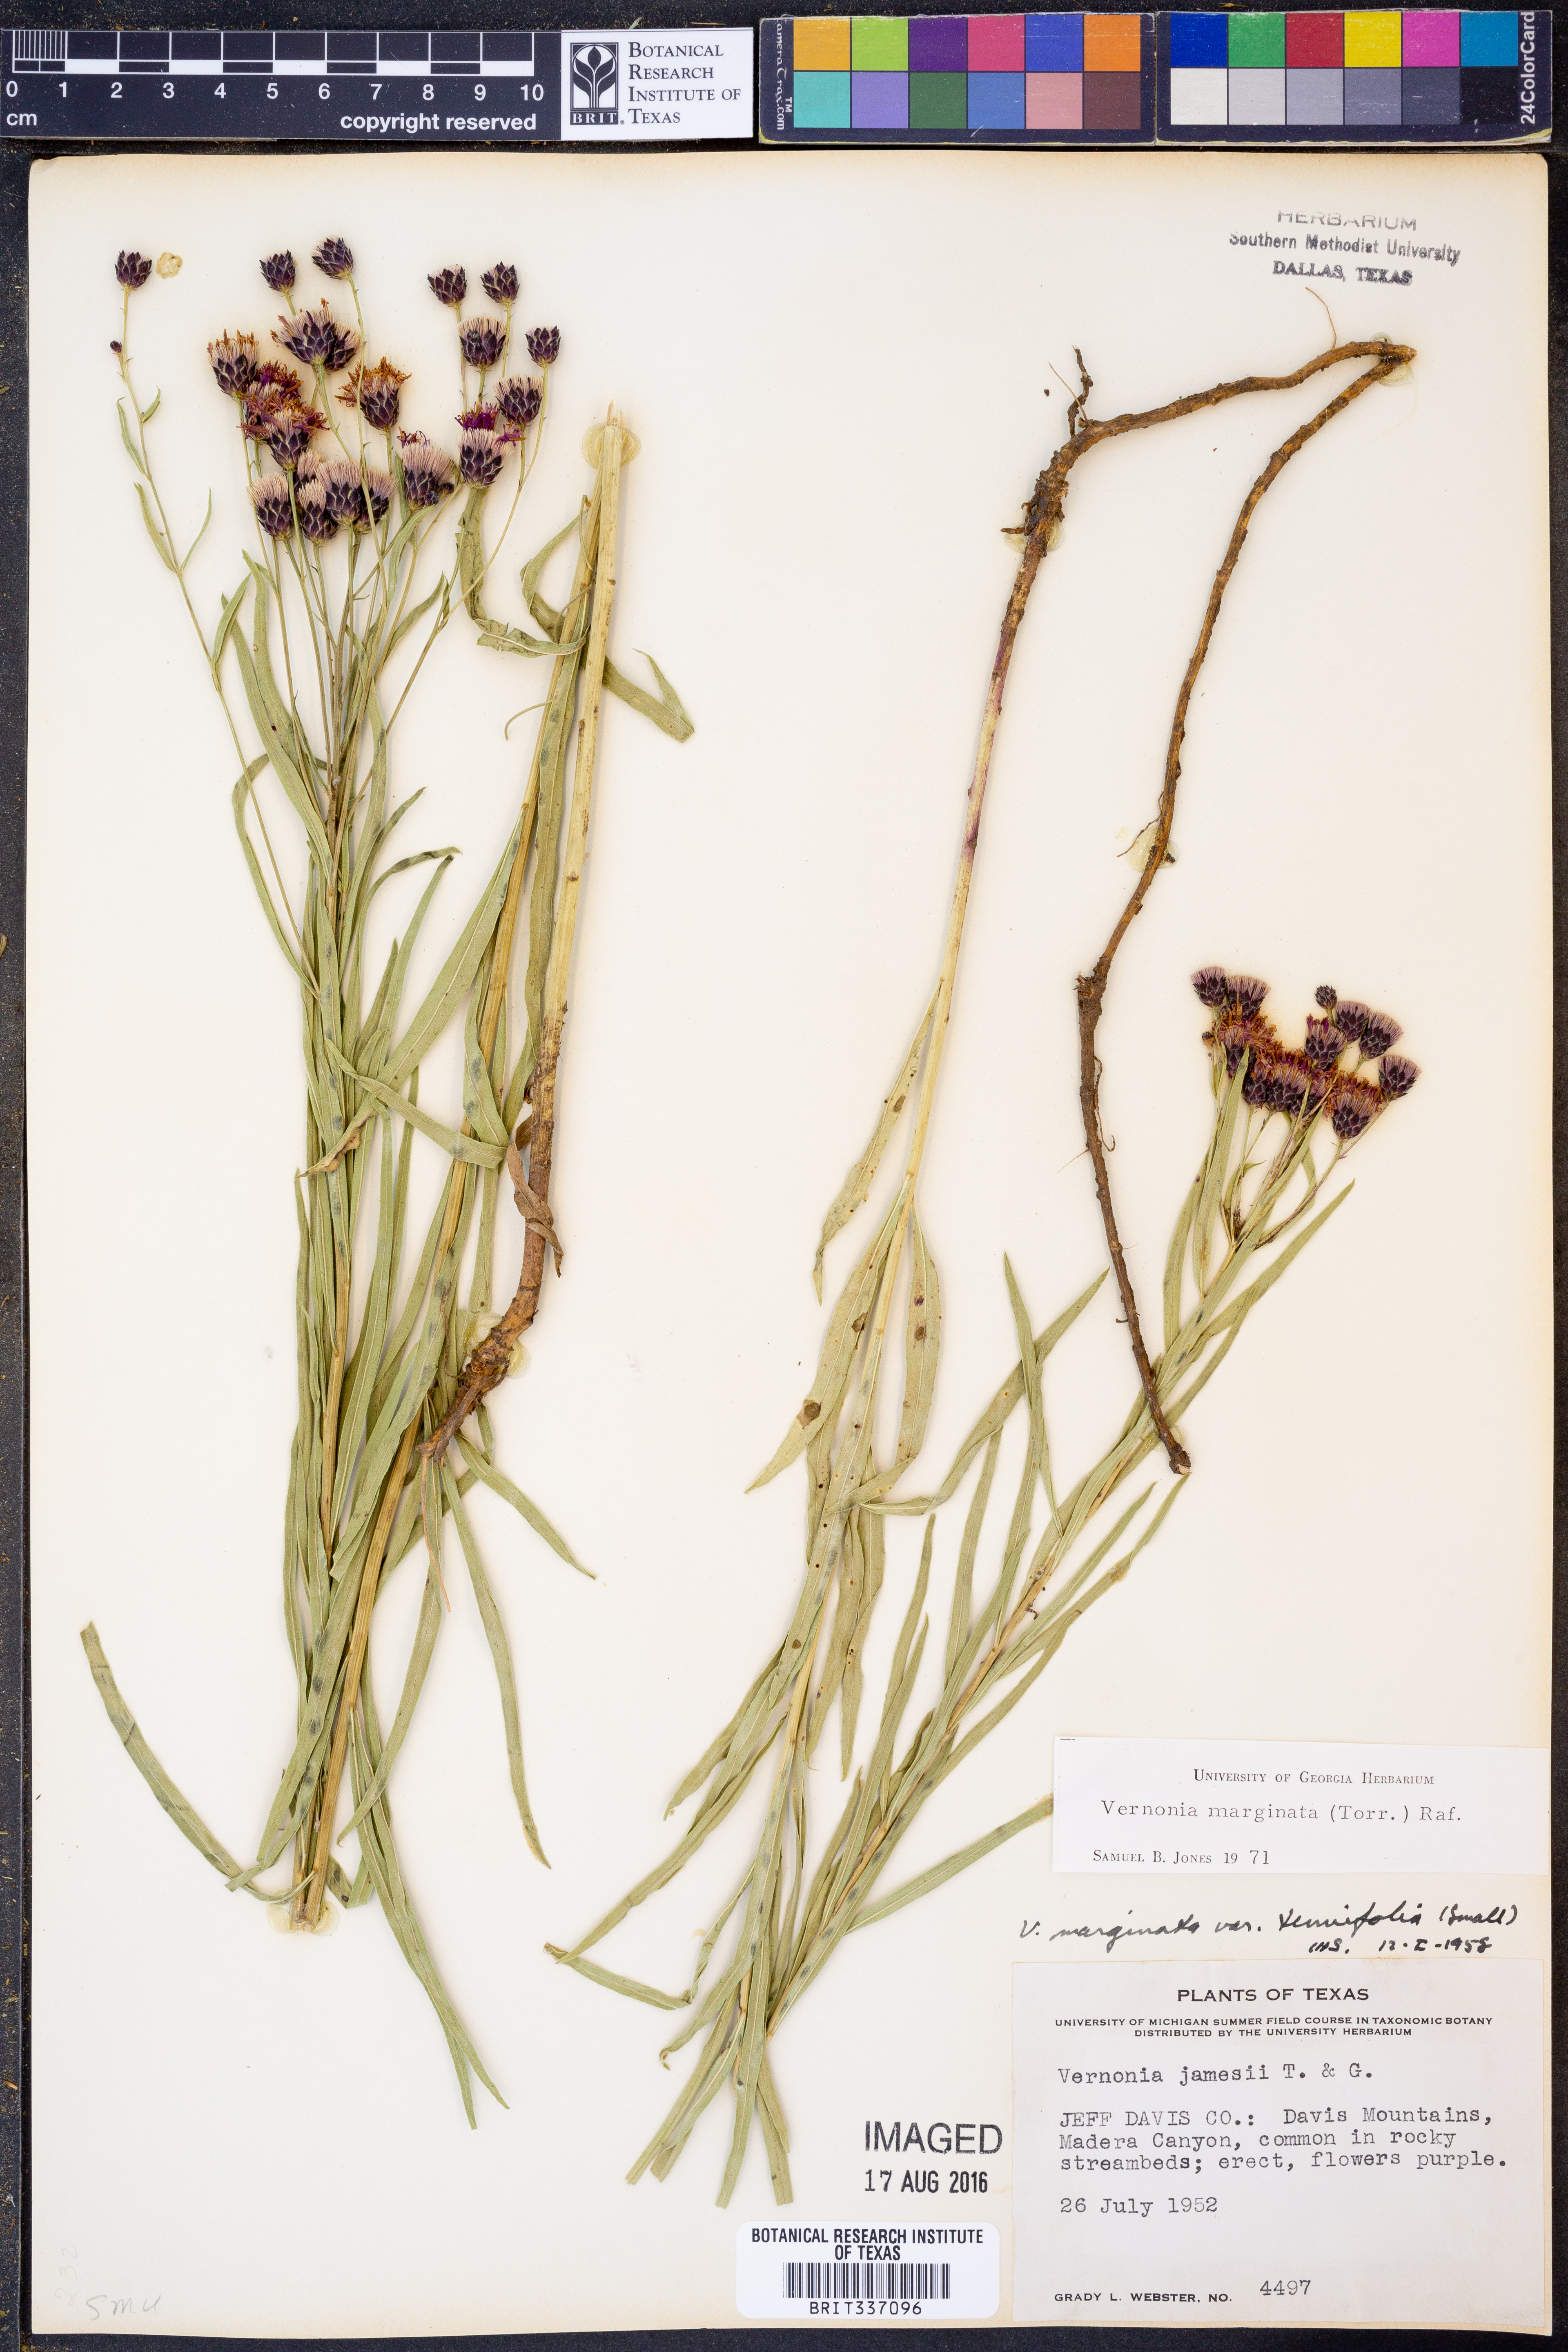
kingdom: Plantae
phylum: Tracheophyta
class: Magnoliopsida
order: Asterales
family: Asteraceae
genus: Vernonia
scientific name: Vernonia marginata
